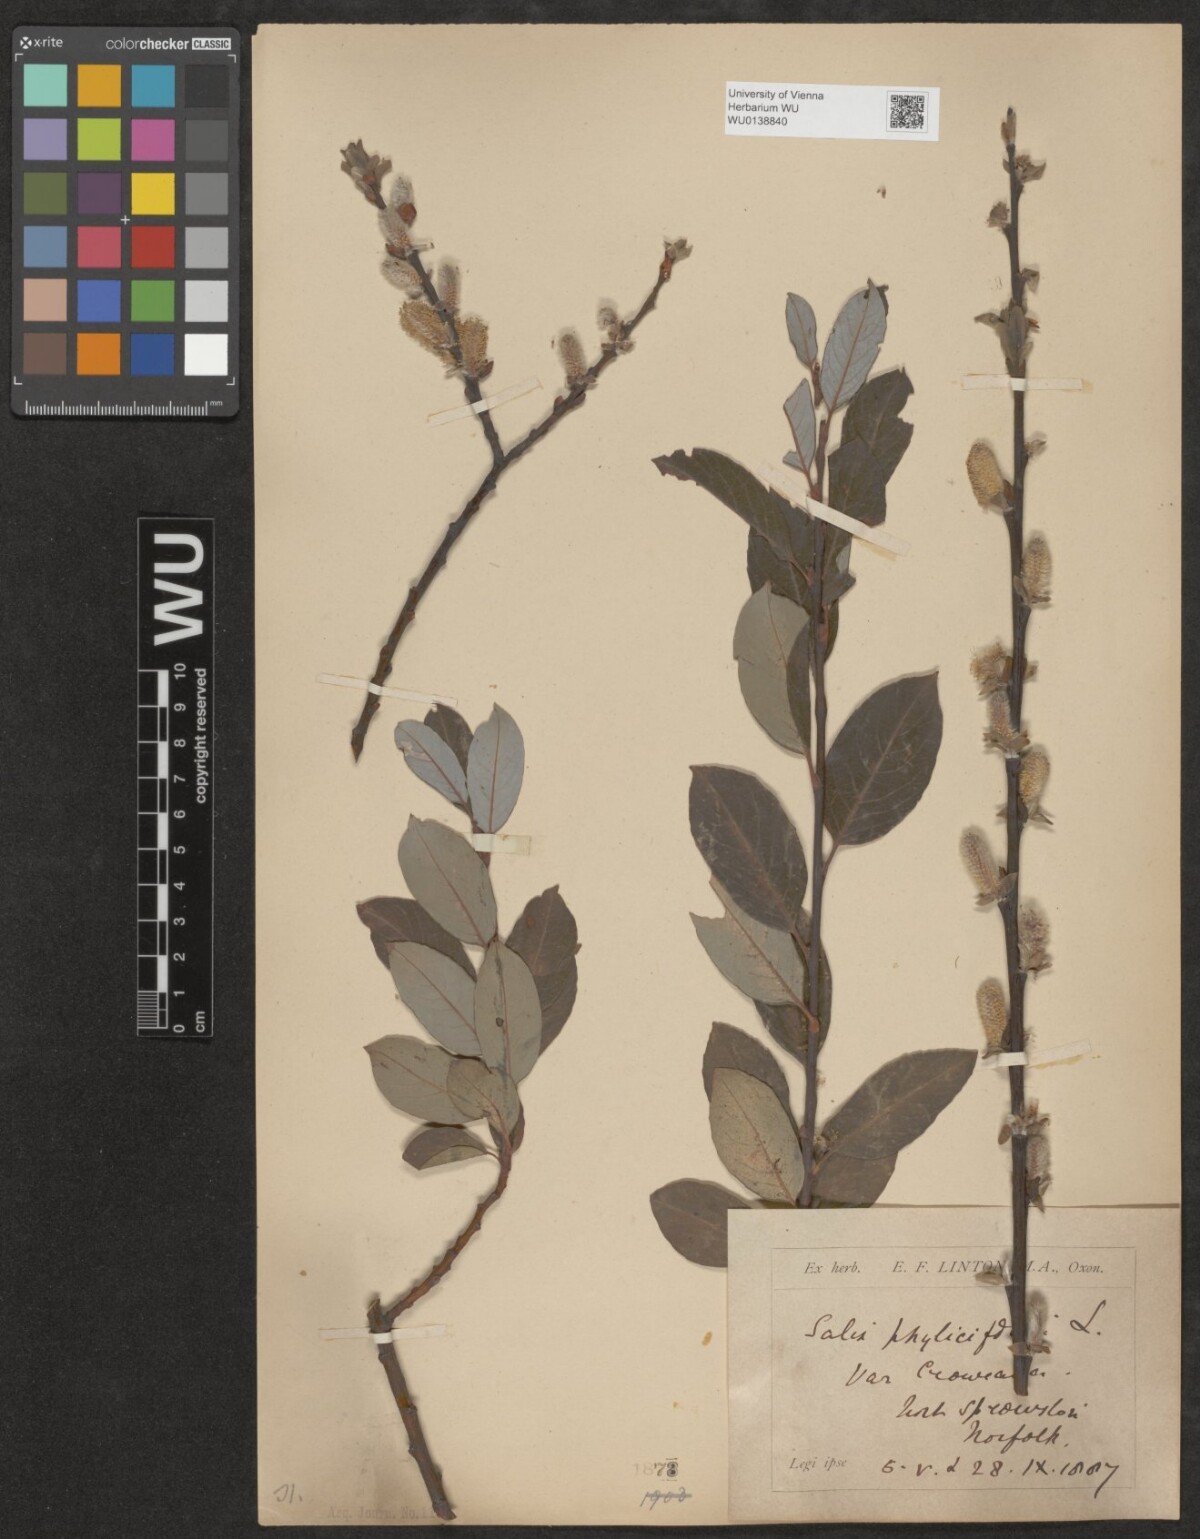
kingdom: Plantae
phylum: Tracheophyta
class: Magnoliopsida
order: Malpighiales
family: Salicaceae
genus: Salix
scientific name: Salix phylicifolia
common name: Tea-leaved willow
